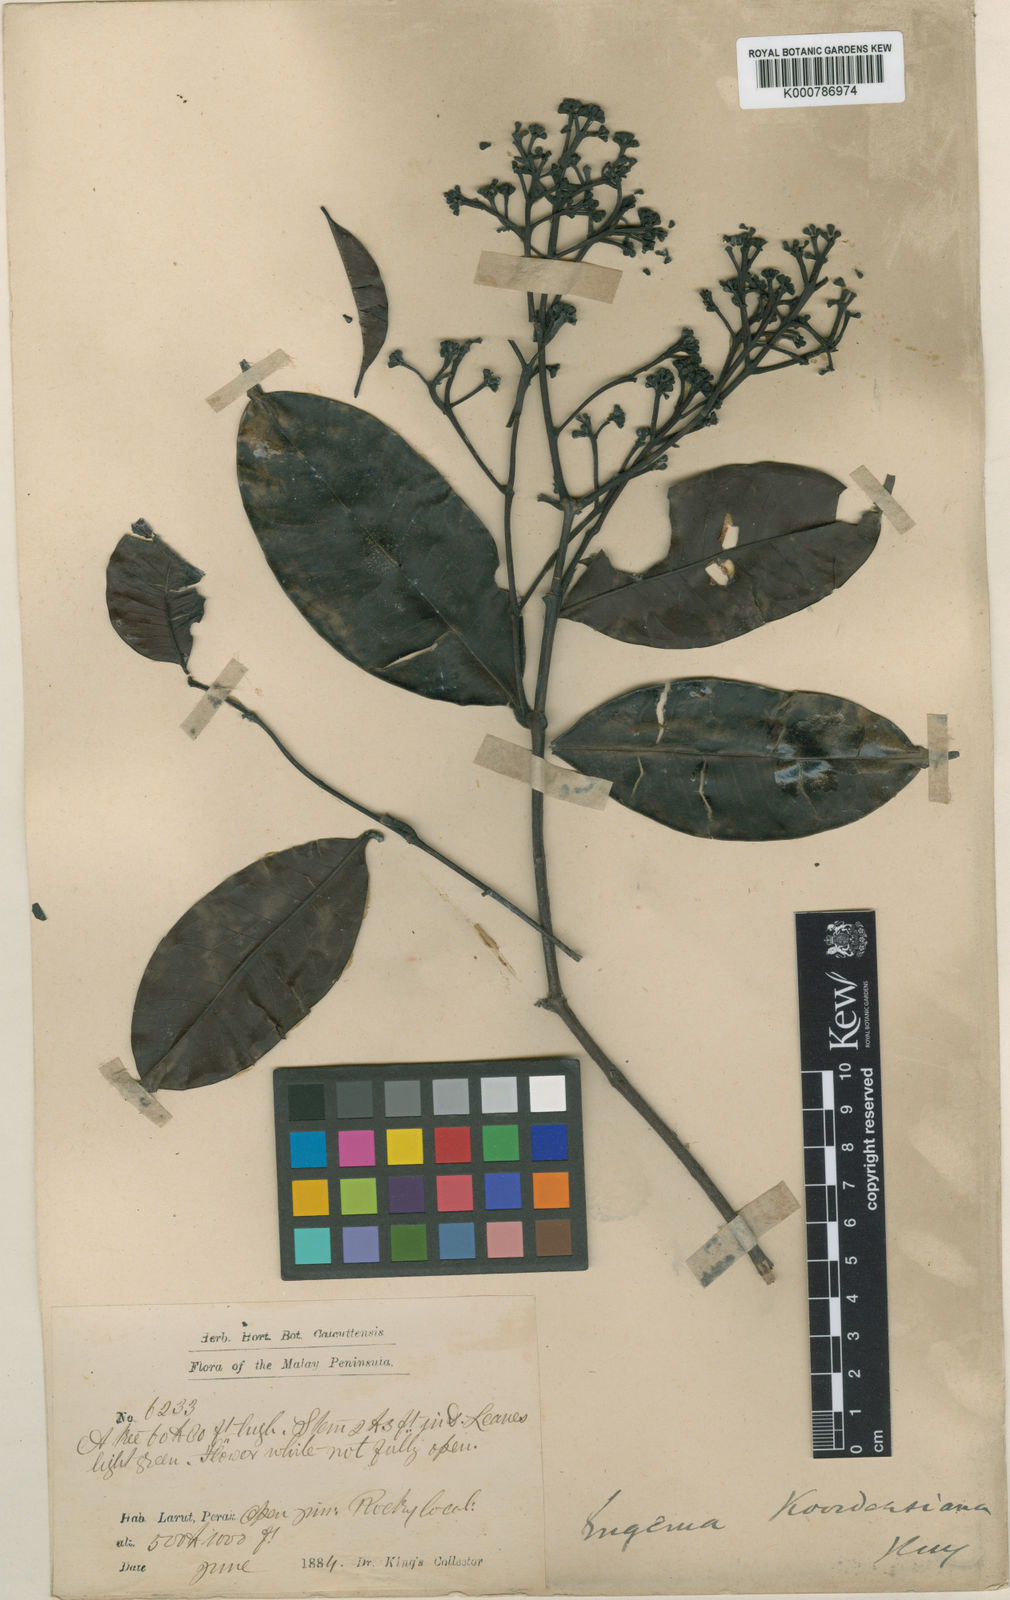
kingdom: Plantae
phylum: Tracheophyta
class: Magnoliopsida
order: Myrtales
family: Myrtaceae
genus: Syzygium
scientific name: Syzygium koordersianum
